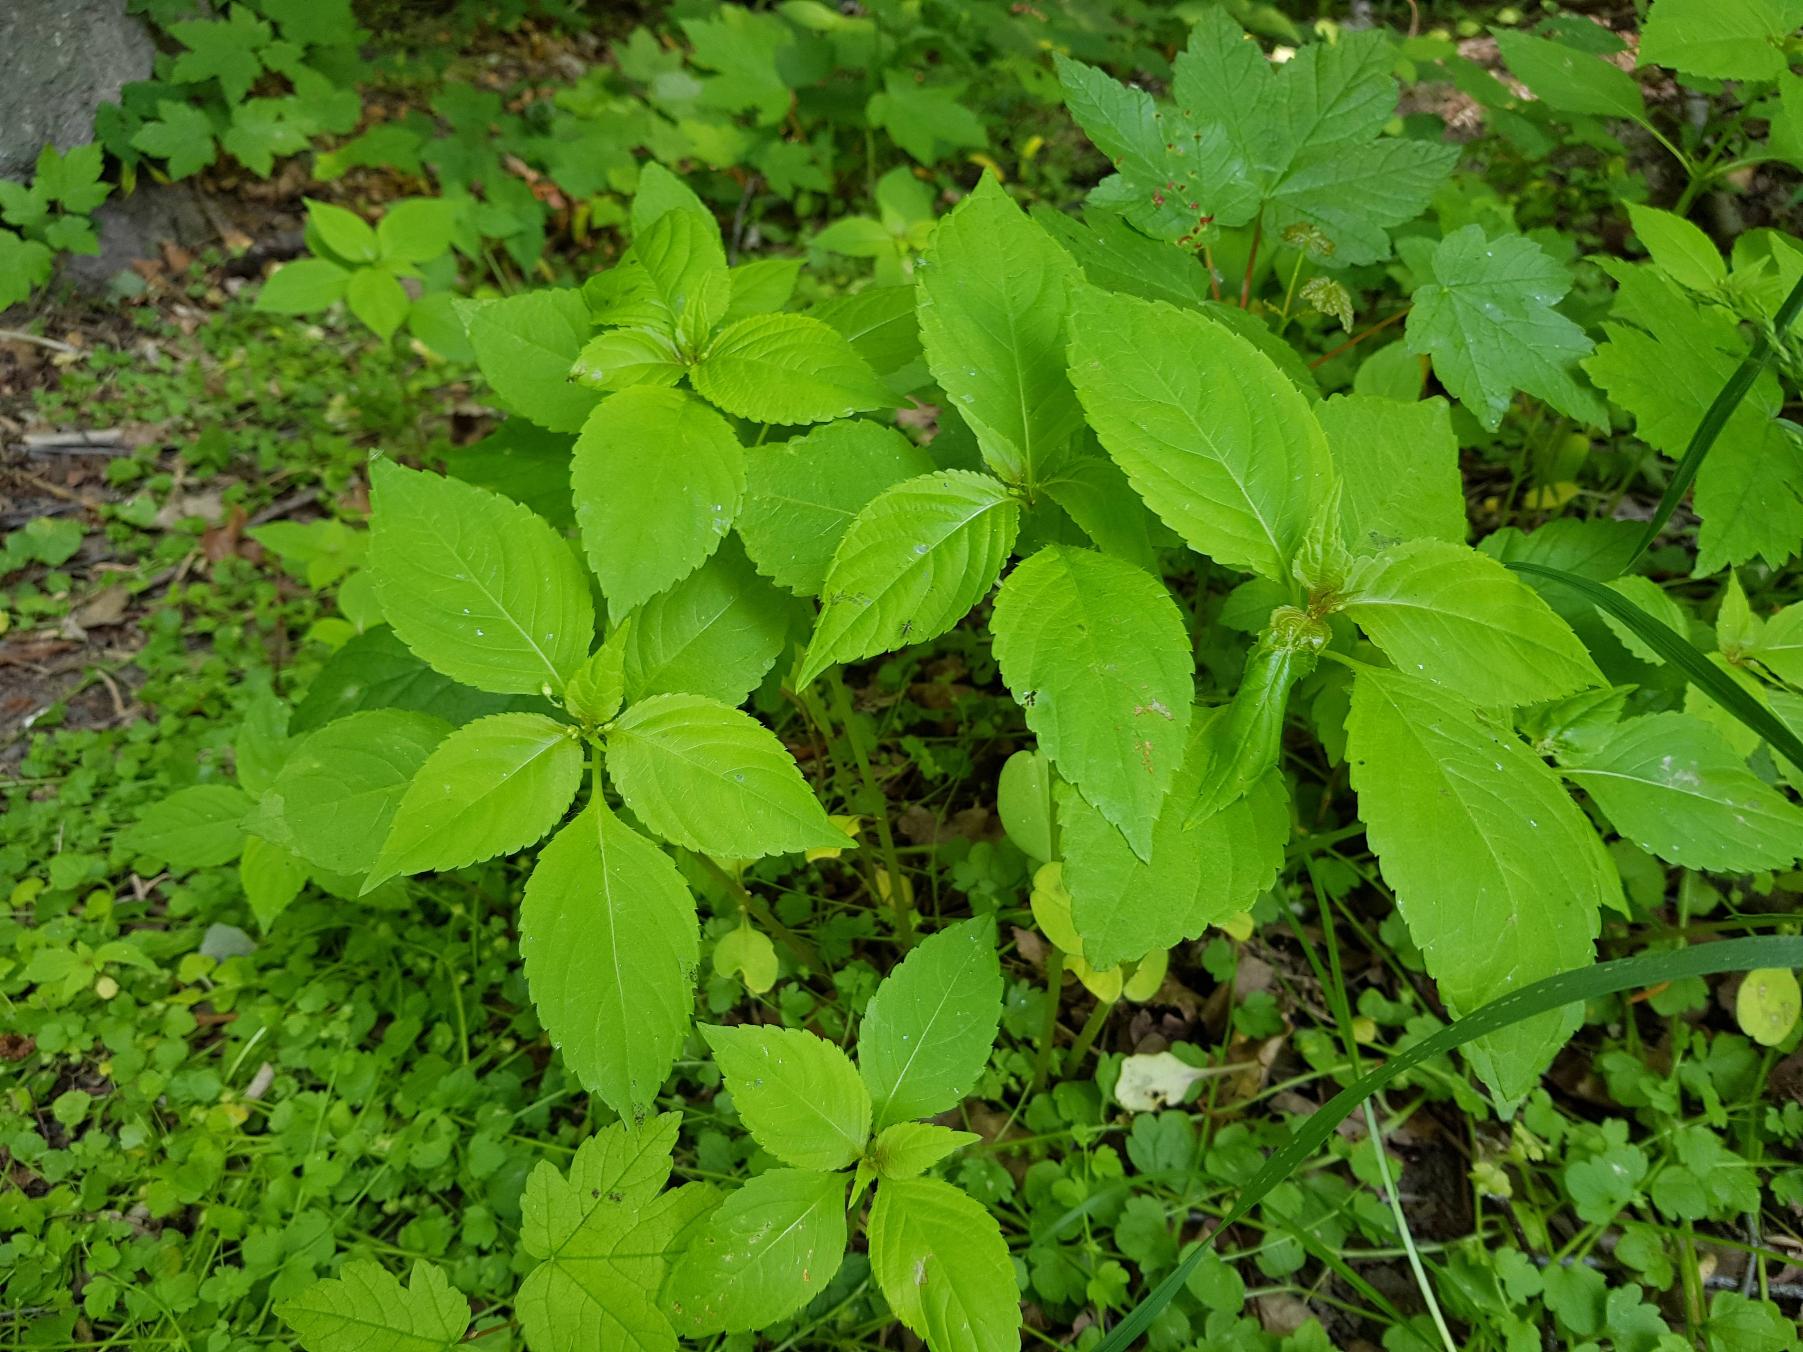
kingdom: Plantae
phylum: Tracheophyta
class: Magnoliopsida
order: Ericales
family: Balsaminaceae
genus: Impatiens
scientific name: Impatiens parviflora
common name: Småblomstret balsamin
